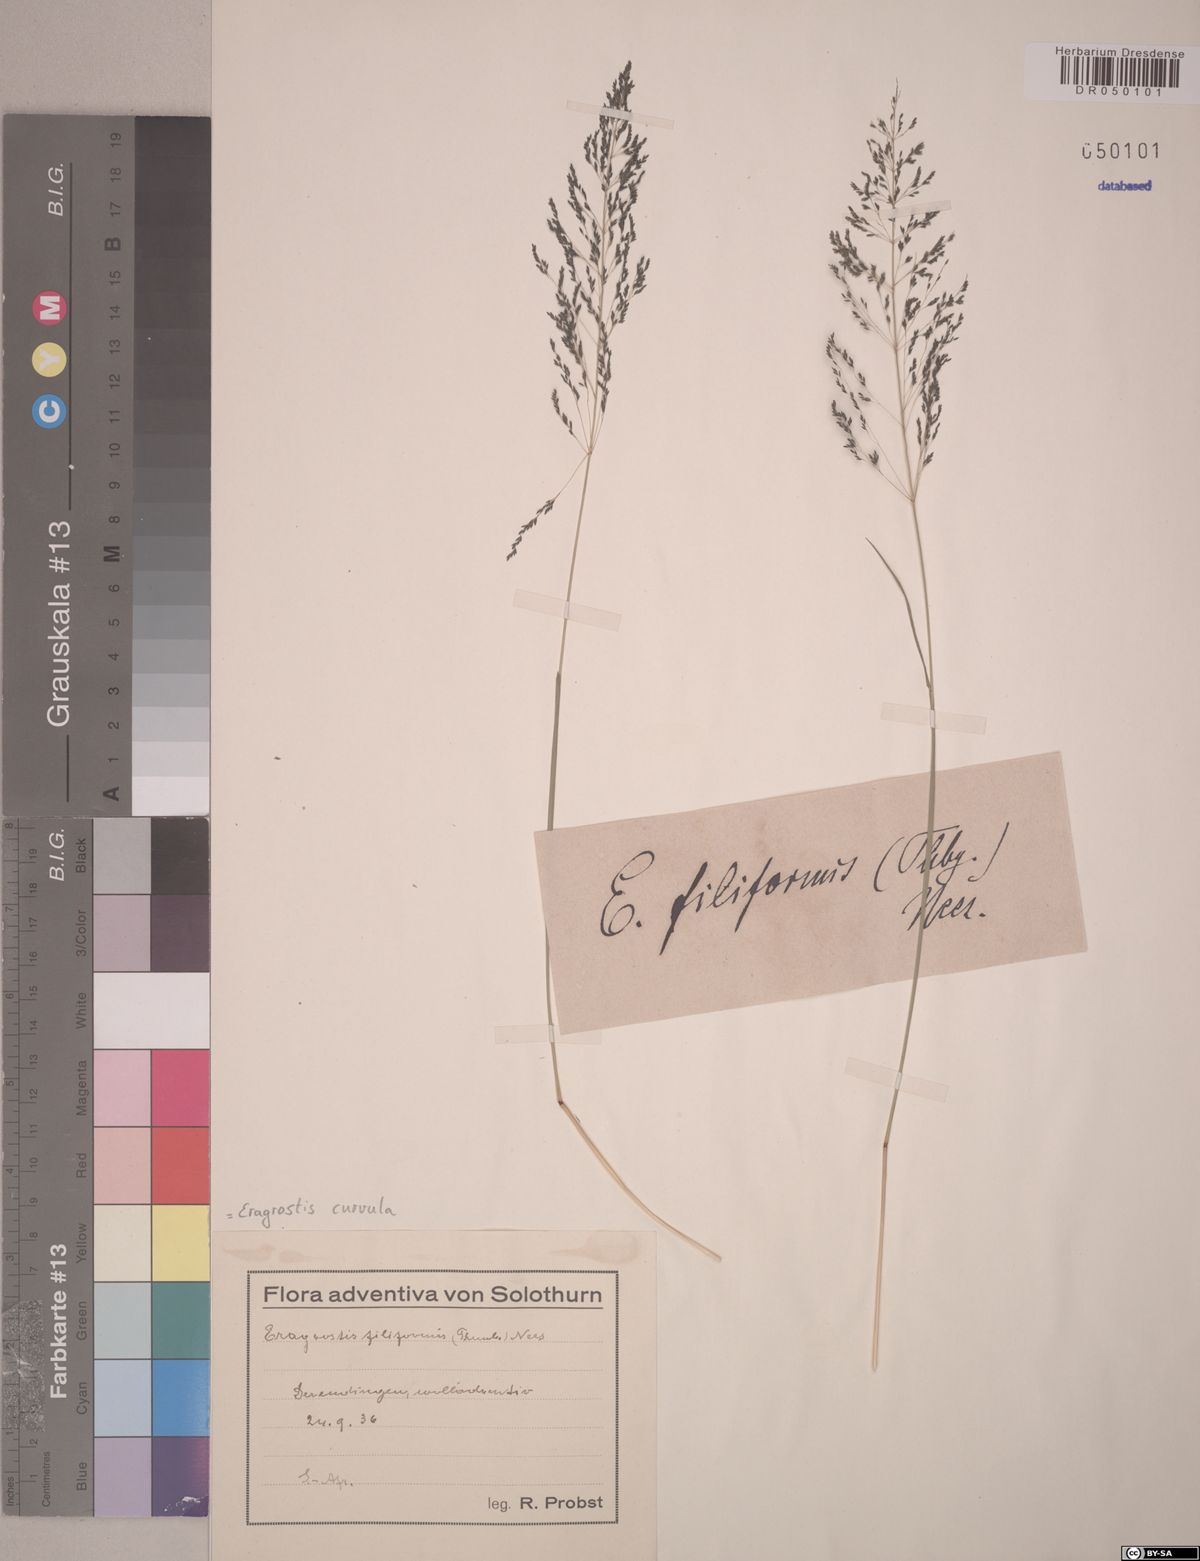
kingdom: Plantae
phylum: Tracheophyta
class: Liliopsida
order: Poales
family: Poaceae
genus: Eragrostis
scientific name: Eragrostis curvula
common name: African love-grass
